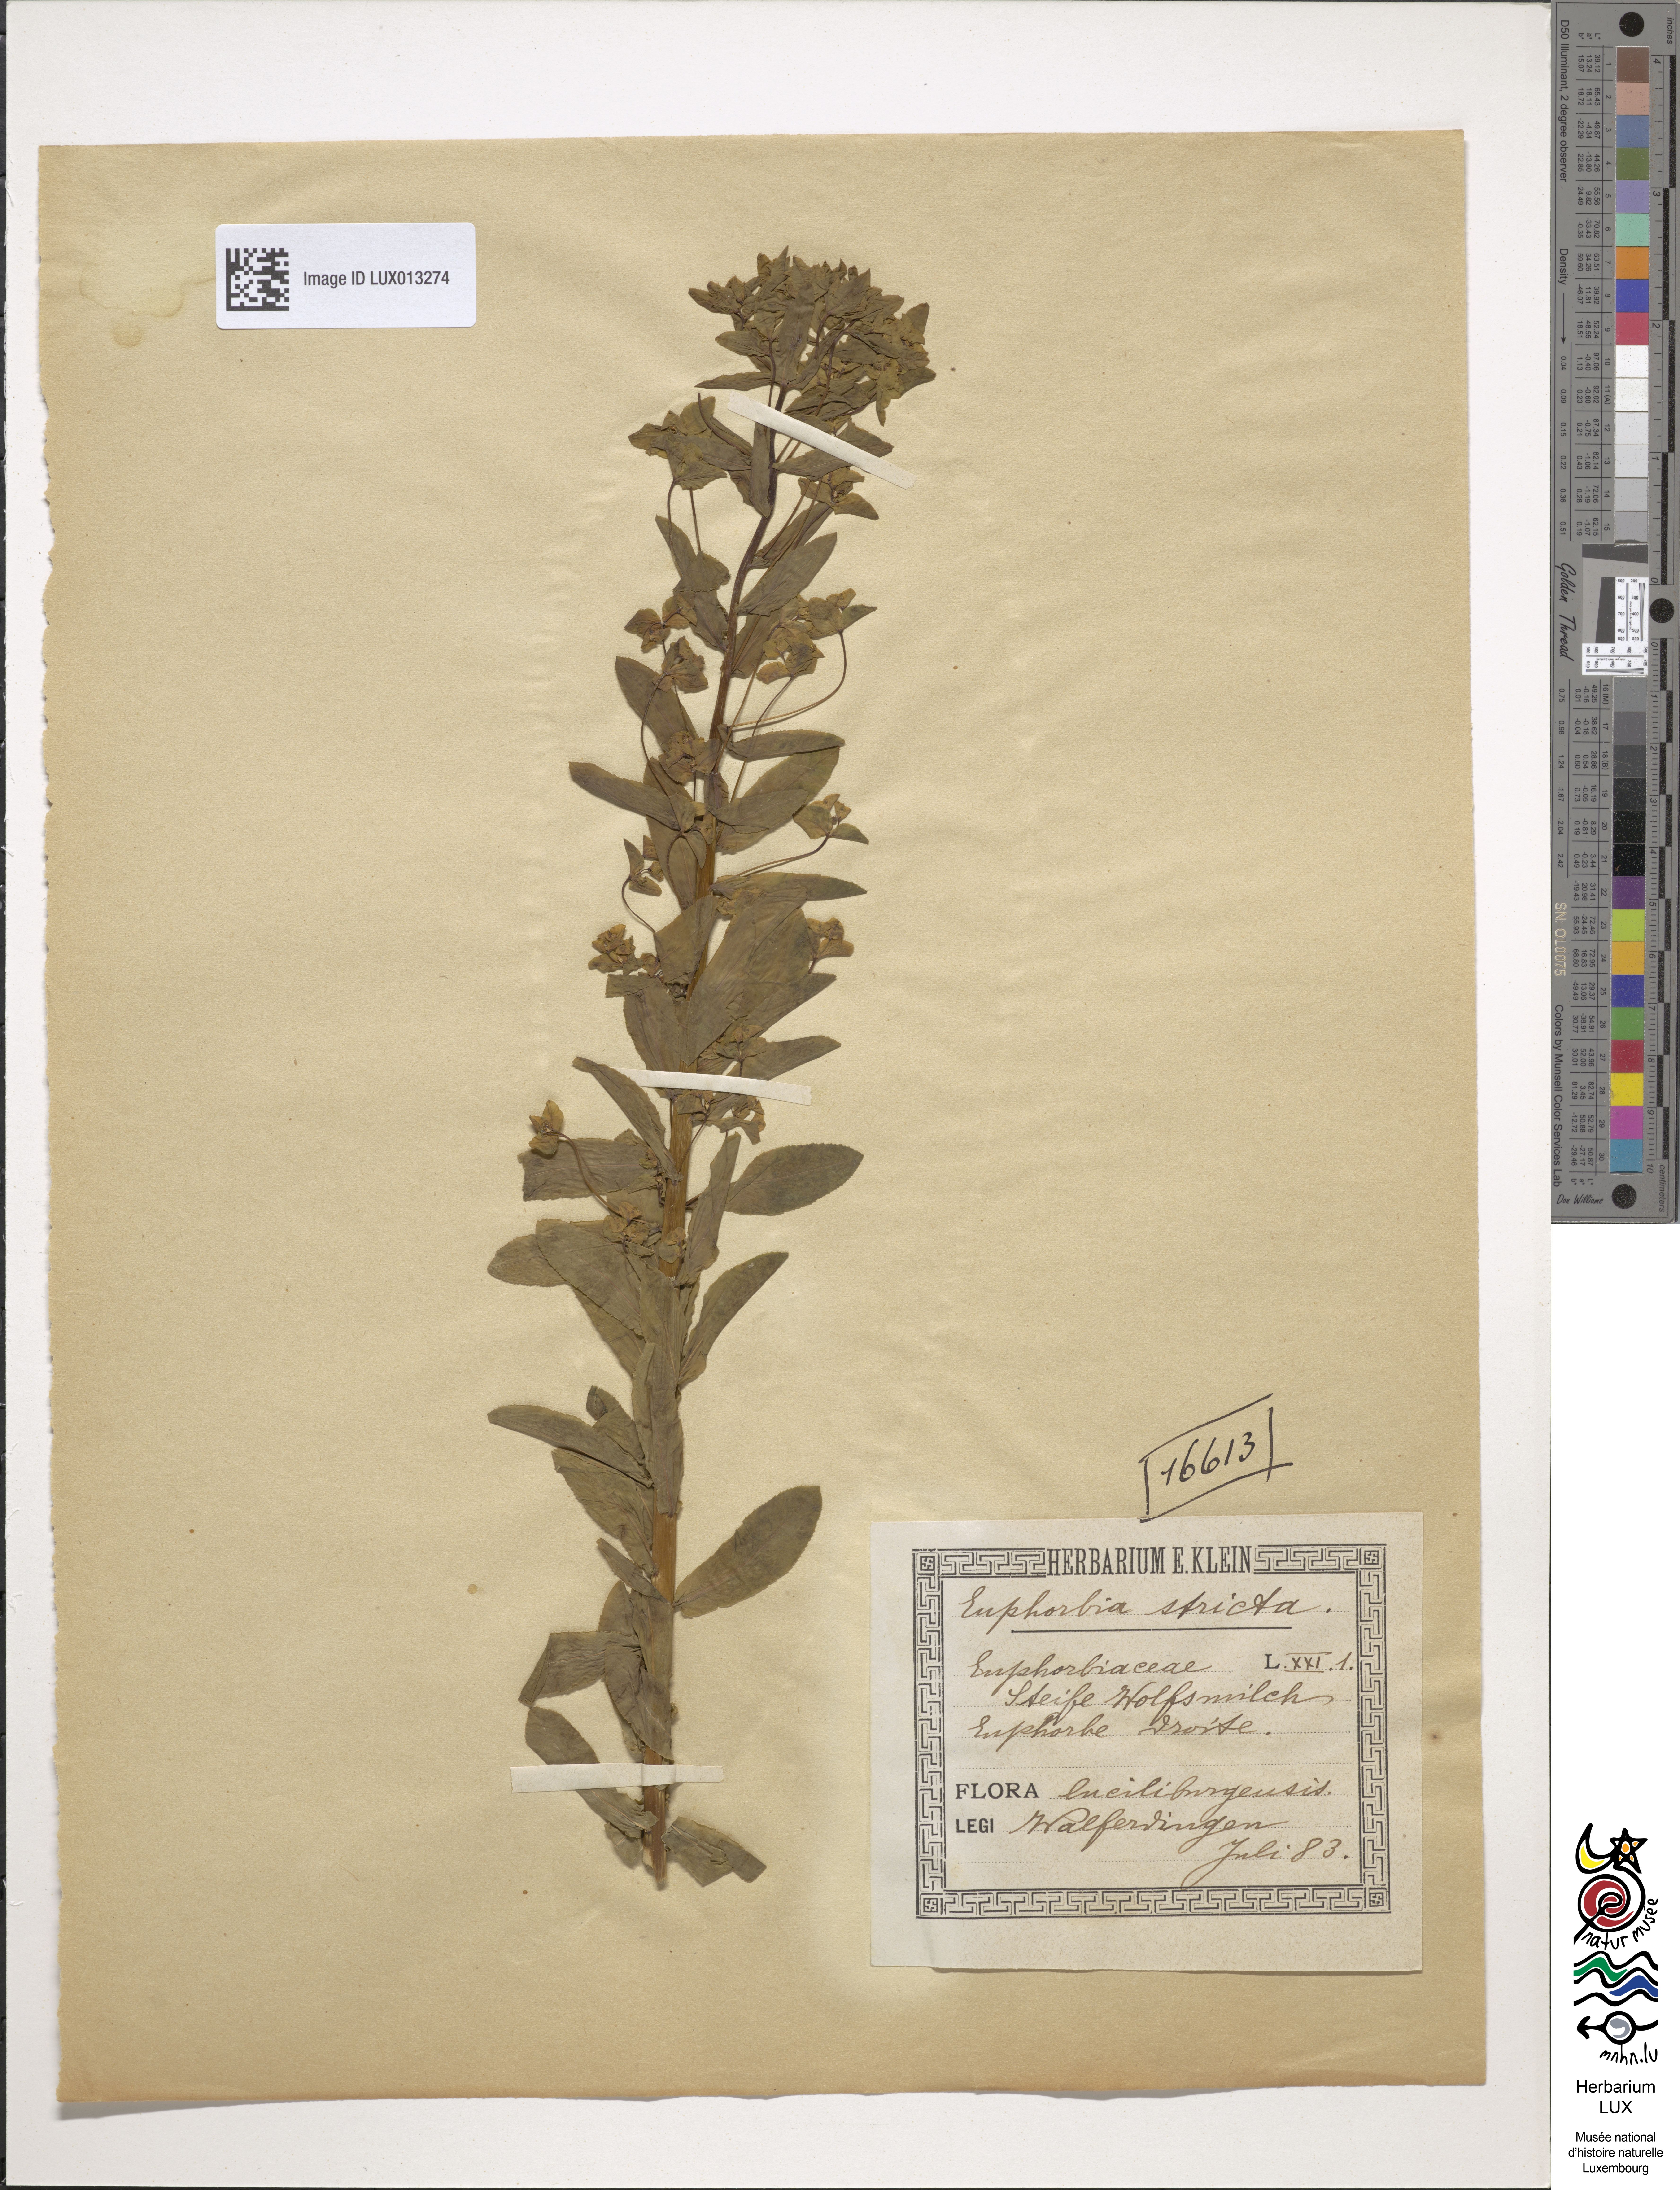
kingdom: Plantae
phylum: Tracheophyta
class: Magnoliopsida
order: Malpighiales
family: Euphorbiaceae
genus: Euphorbia
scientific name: Euphorbia stricta
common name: Upright spurge
